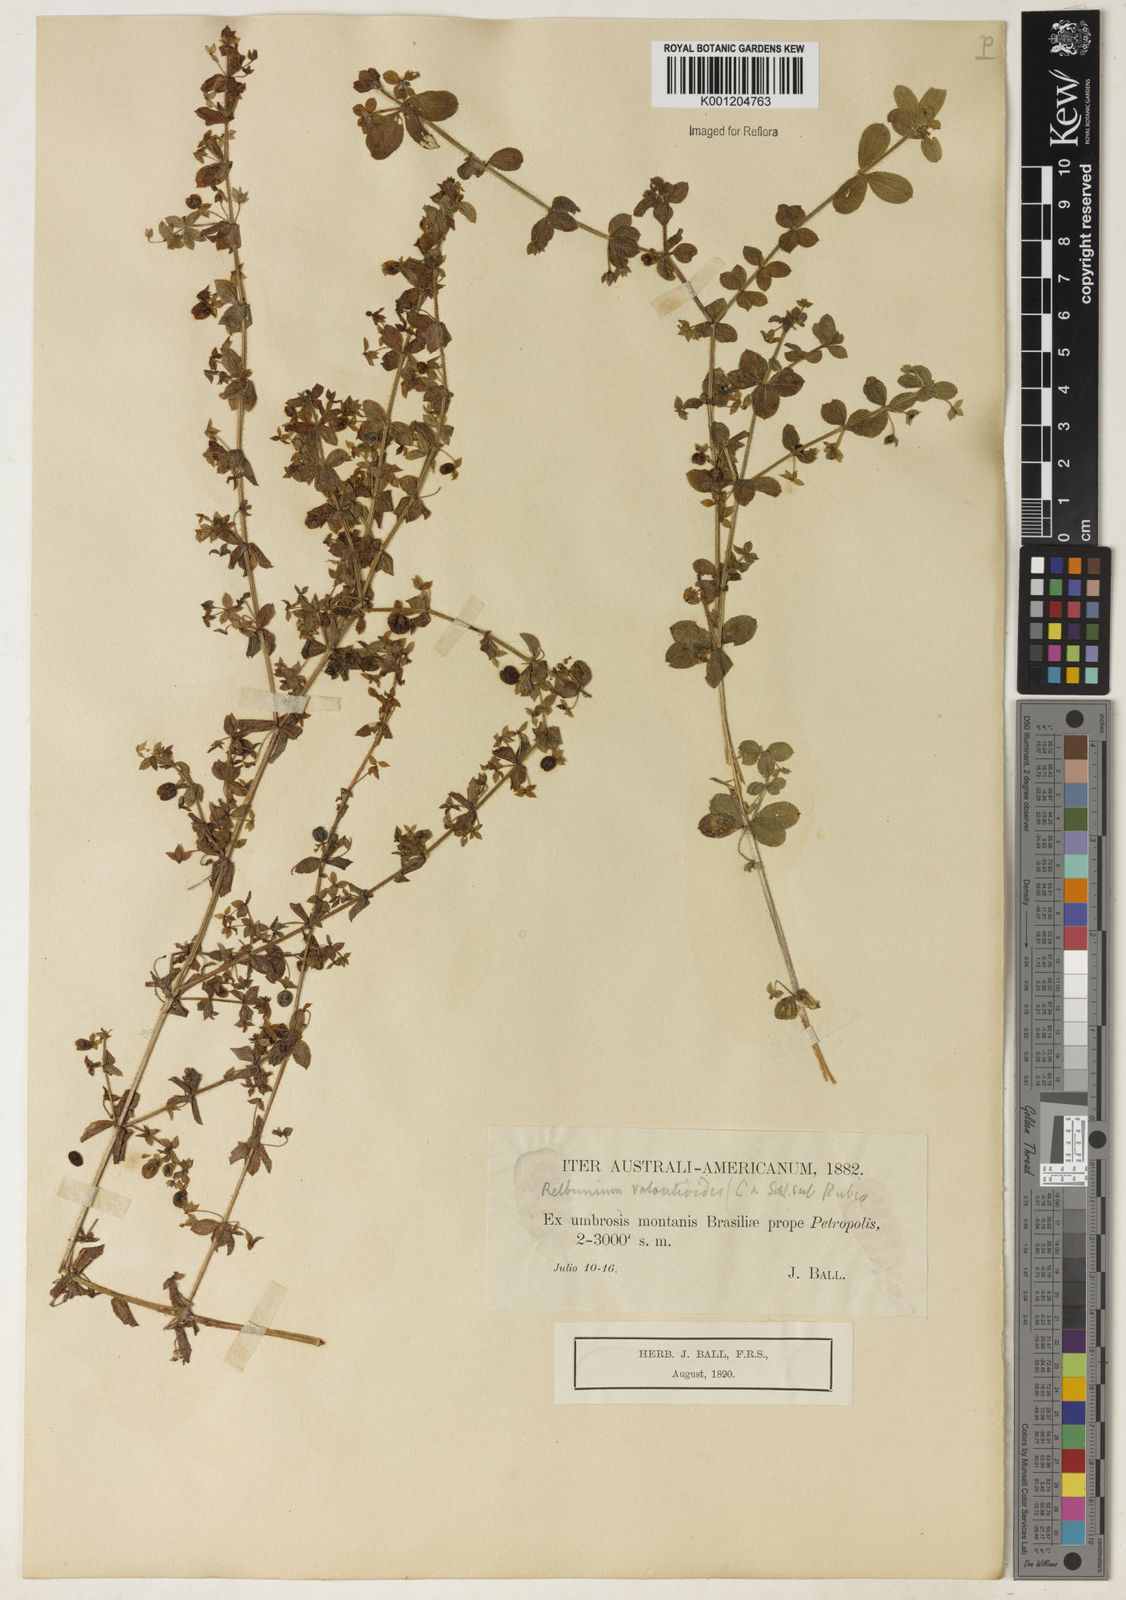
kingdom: Plantae
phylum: Tracheophyta
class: Magnoliopsida
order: Gentianales
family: Rubiaceae
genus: Galium
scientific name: Galium noxium
